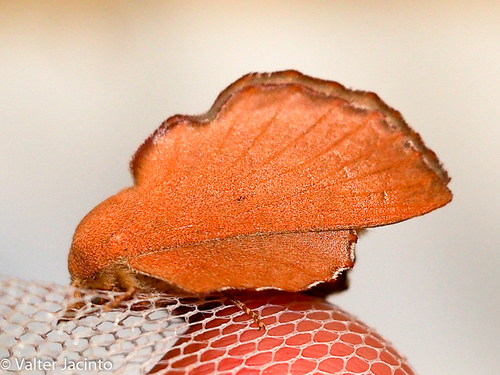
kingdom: Animalia
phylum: Arthropoda
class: Insecta
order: Lepidoptera
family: Lasiocampidae
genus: Phyllodesma
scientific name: Phyllodesma suberifolia
